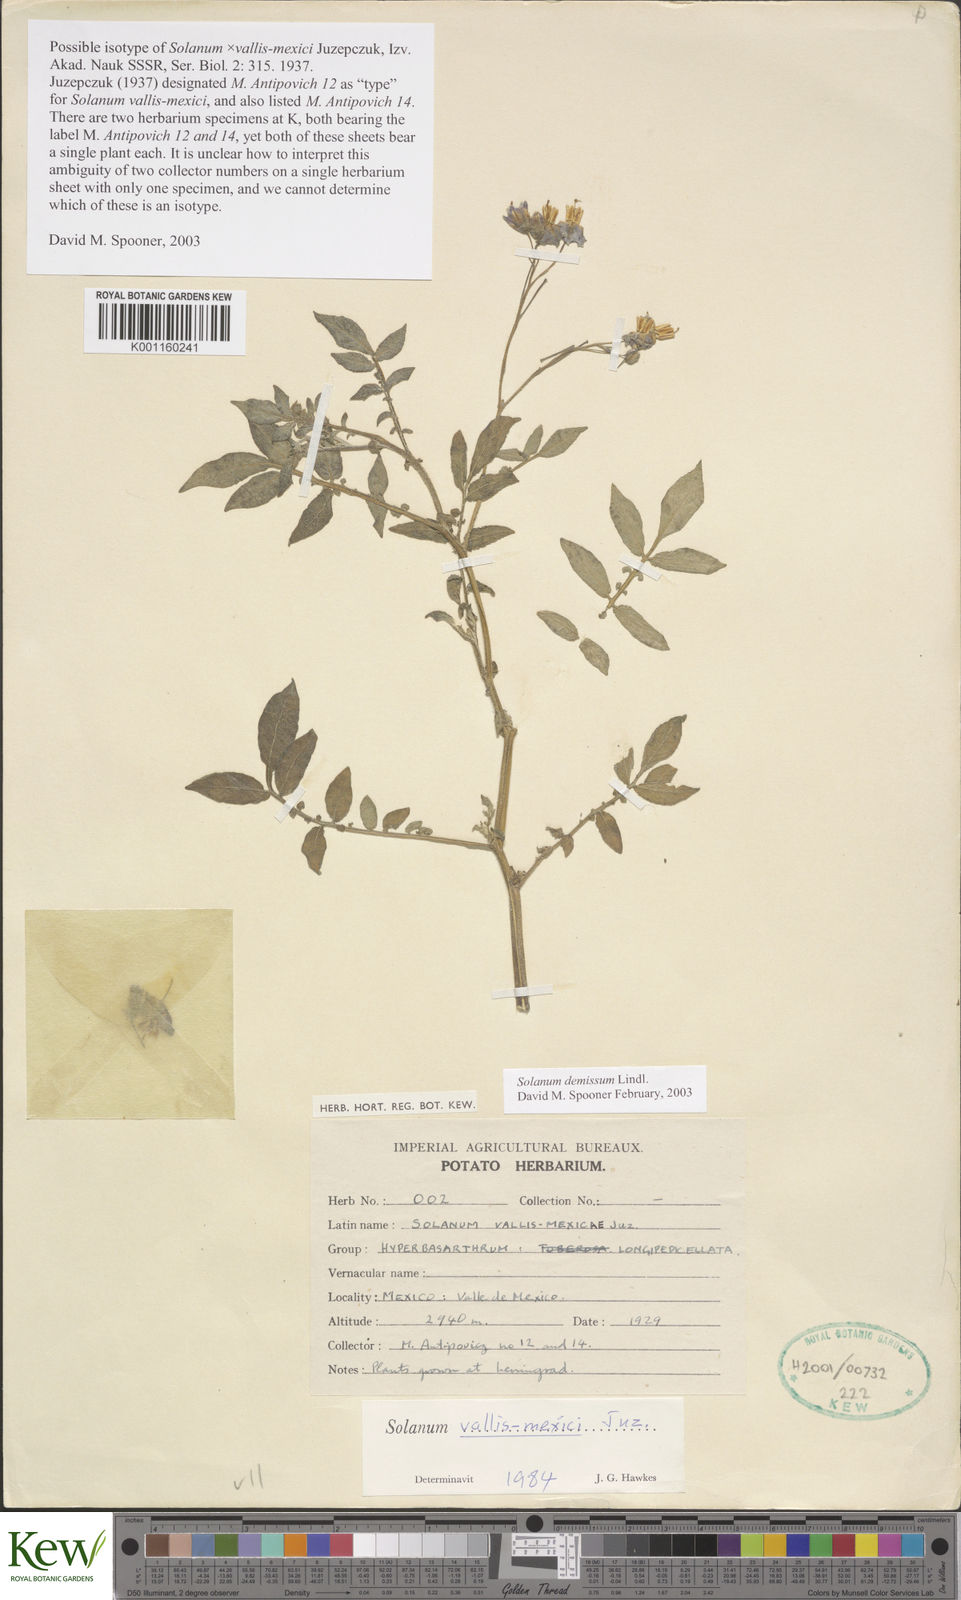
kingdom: Plantae
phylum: Tracheophyta
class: Magnoliopsida
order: Solanales
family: Solanaceae
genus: Solanum
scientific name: Solanum demissum
